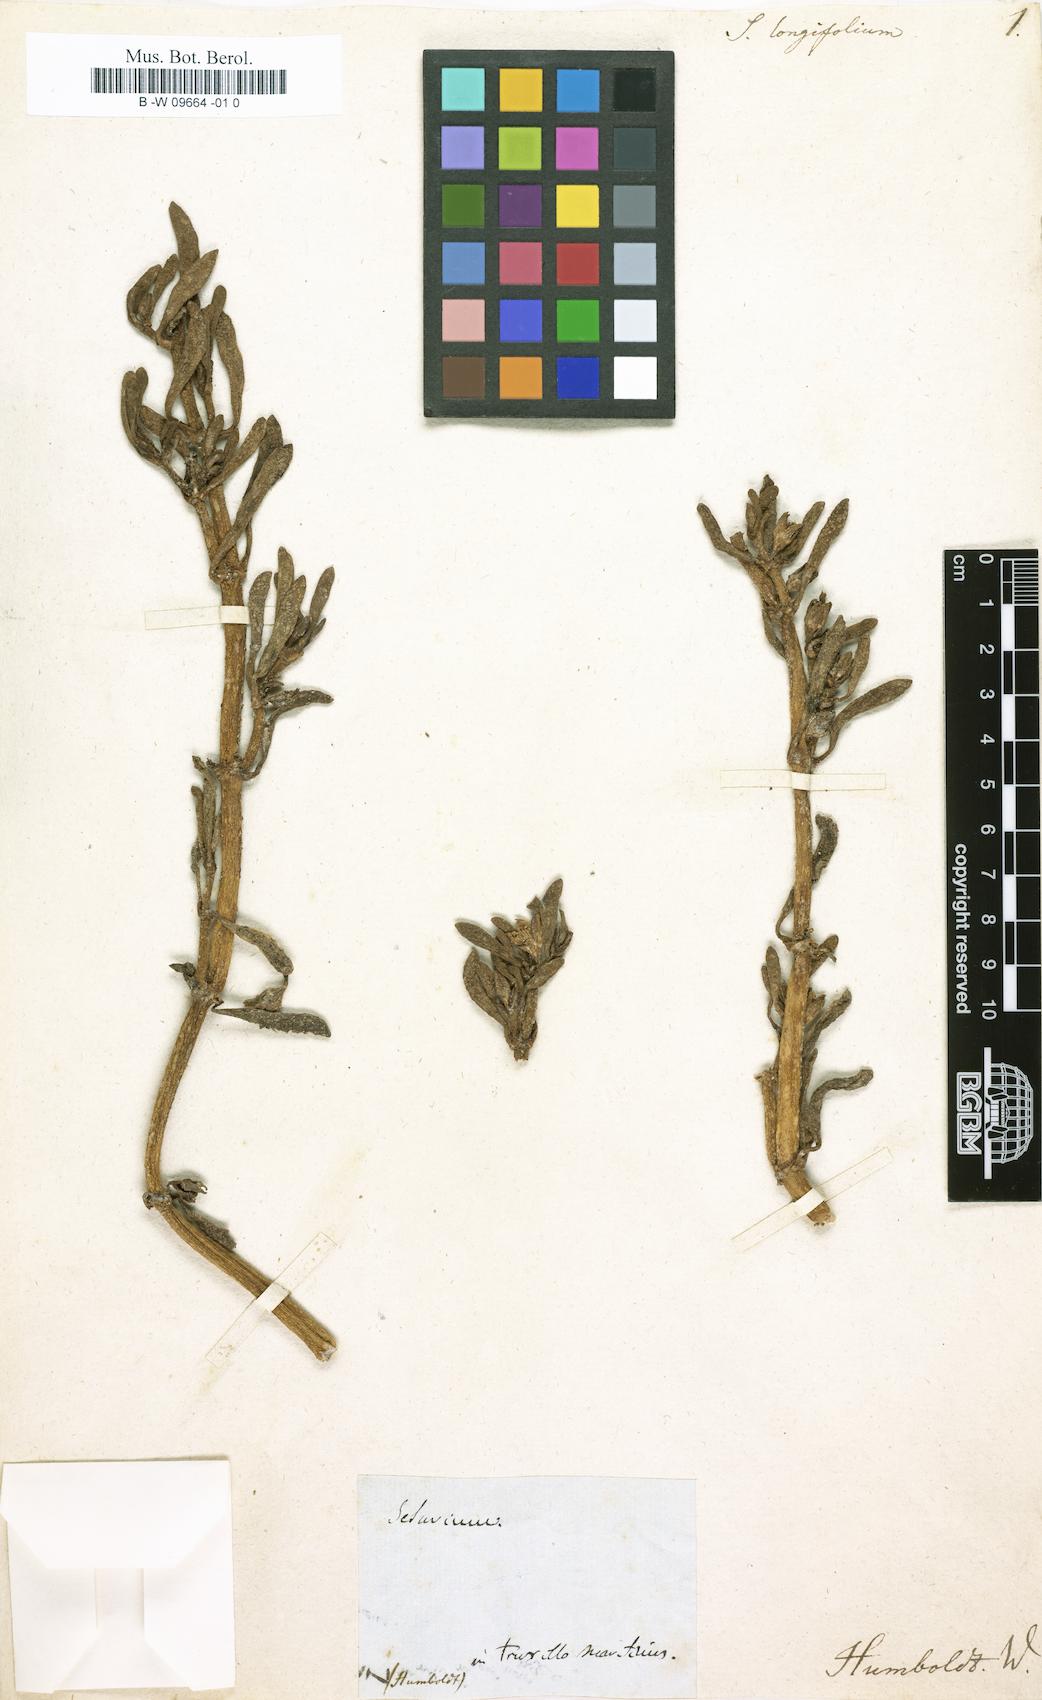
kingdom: Plantae
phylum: Tracheophyta
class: Magnoliopsida
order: Caryophyllales
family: Aizoaceae
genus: Sesuvium
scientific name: Sesuvium portulacastrum
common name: Sea-purslane
